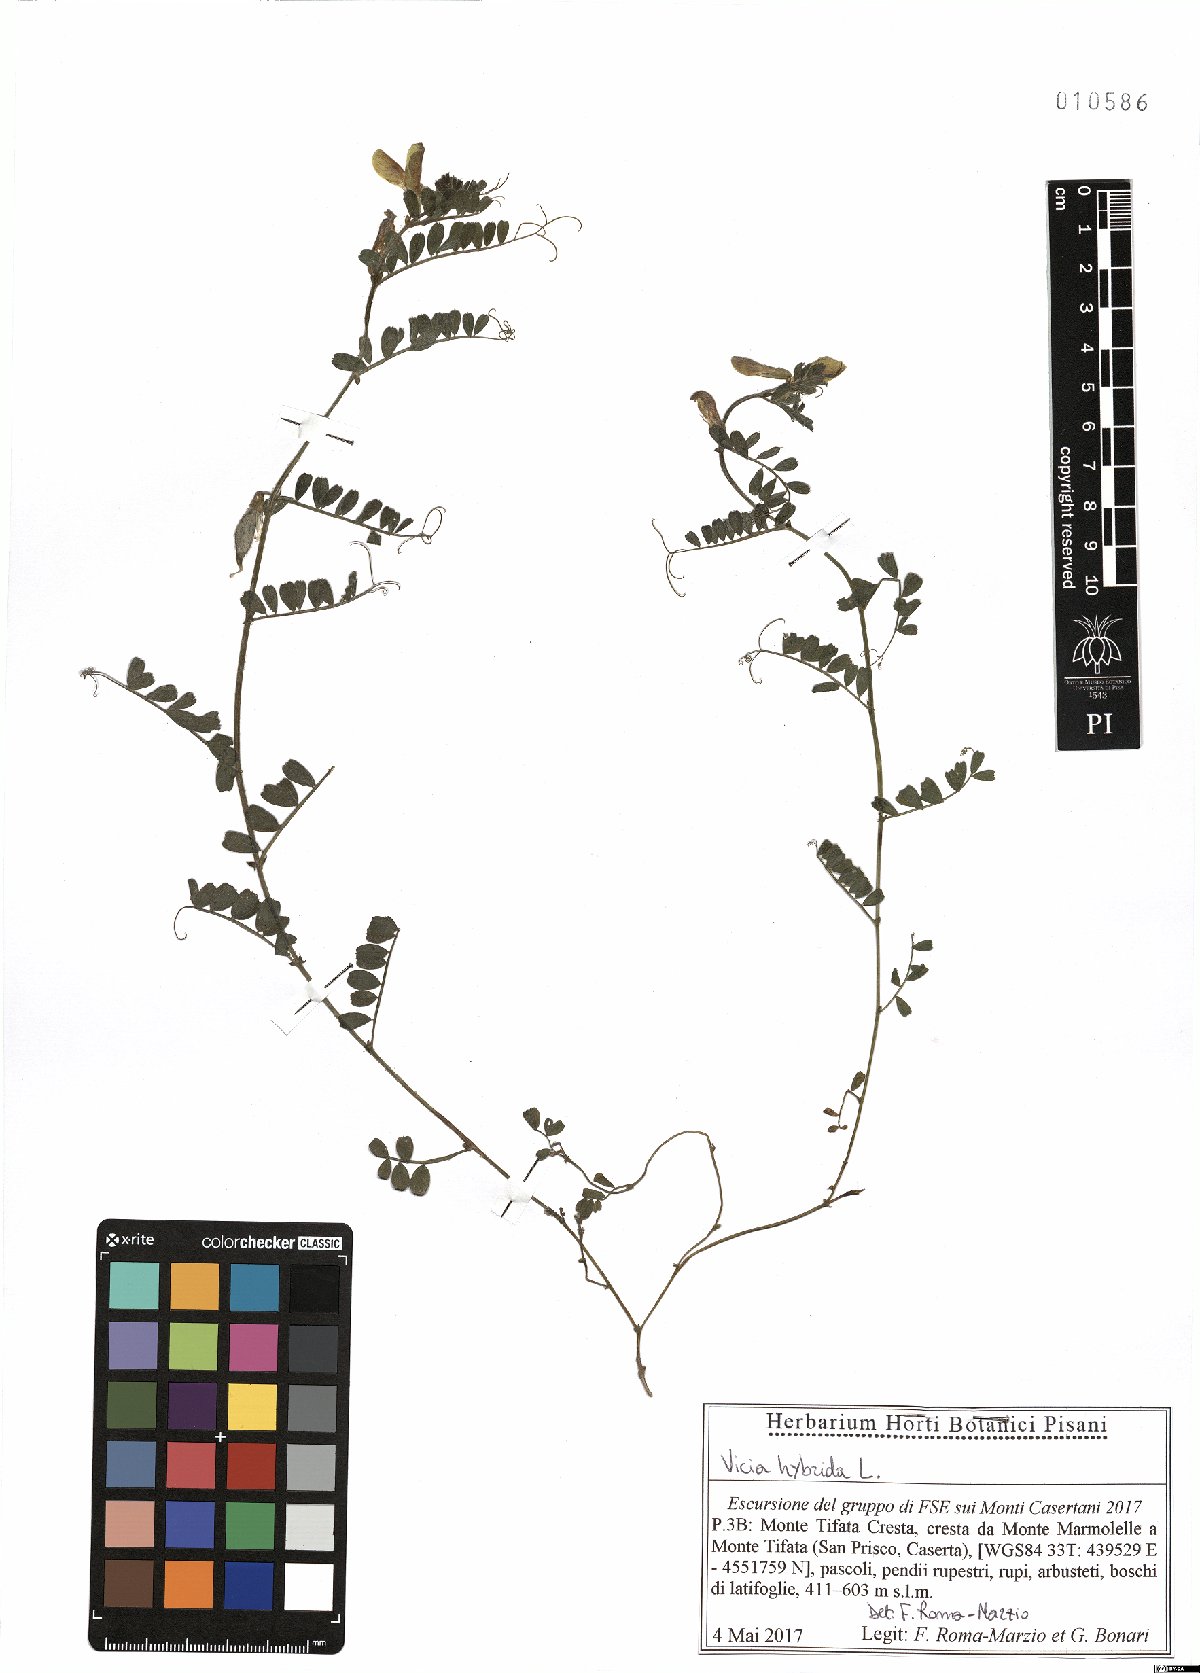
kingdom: Plantae
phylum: Tracheophyta
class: Magnoliopsida
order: Fabales
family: Fabaceae
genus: Vicia
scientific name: Vicia hybrida
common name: Hairy yellow vetch
